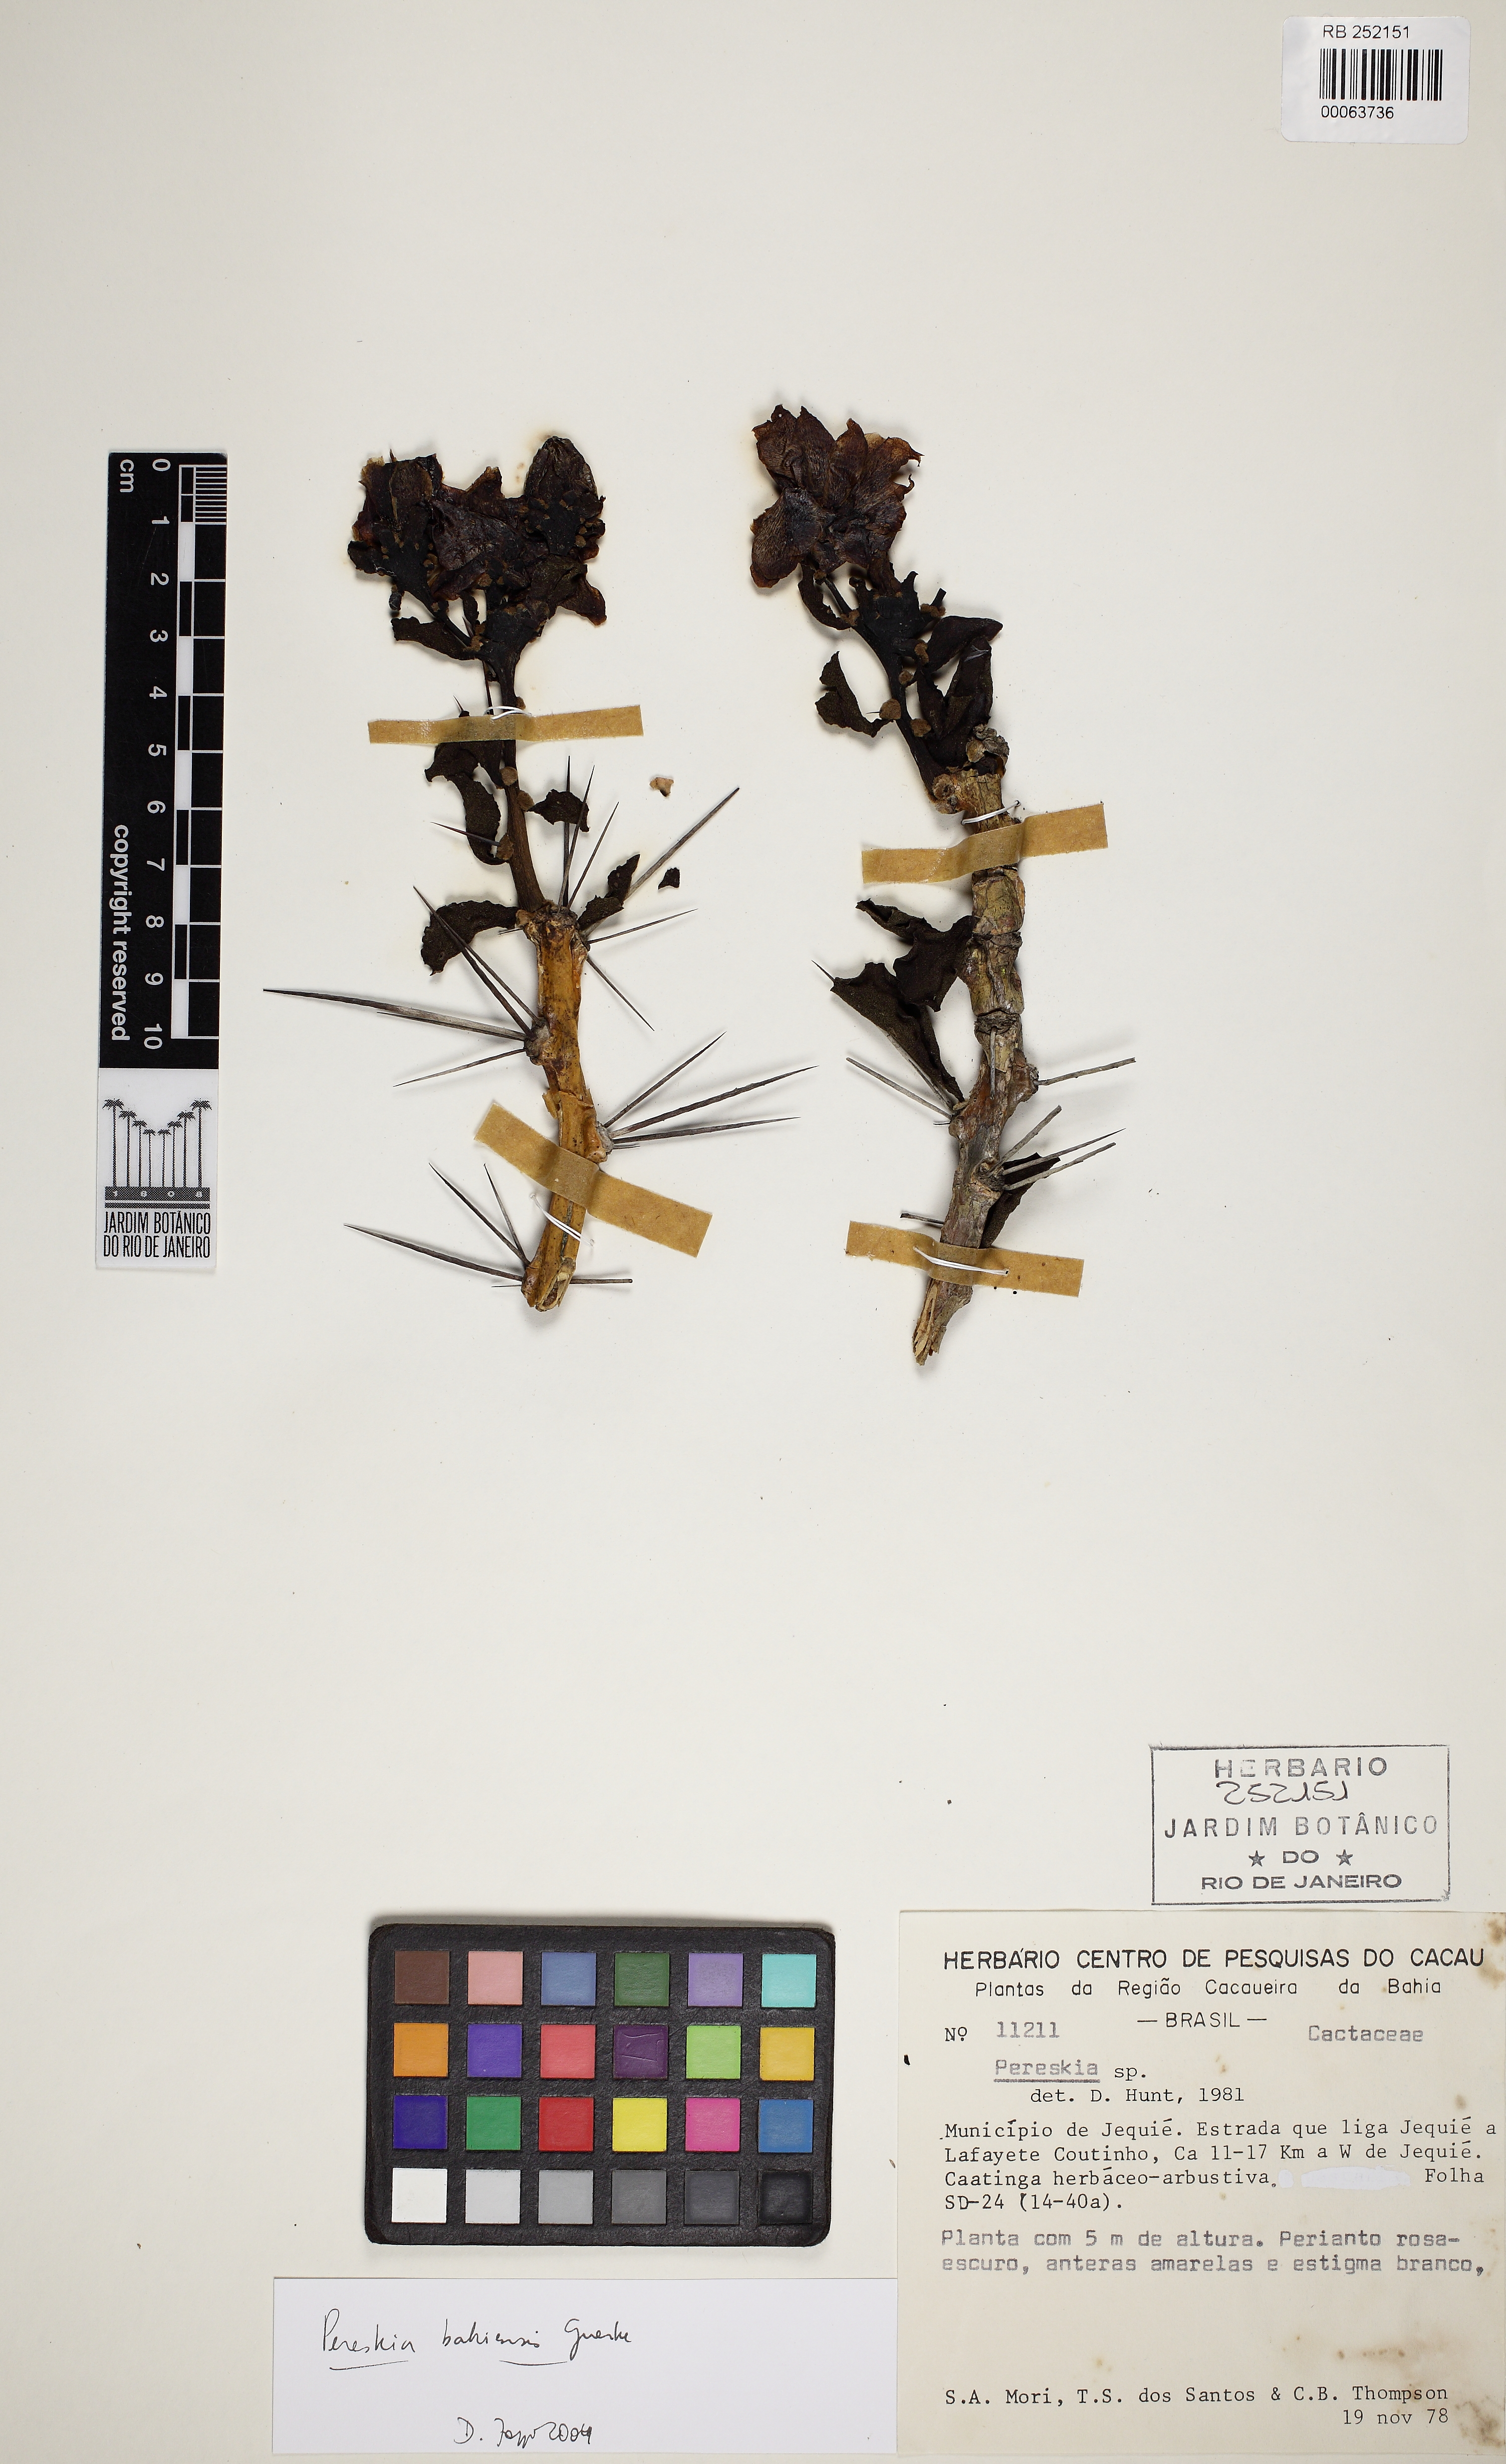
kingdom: Plantae
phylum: Tracheophyta
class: Magnoliopsida
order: Caryophyllales
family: Cactaceae
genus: Pereskia
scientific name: Pereskia bahiensis
